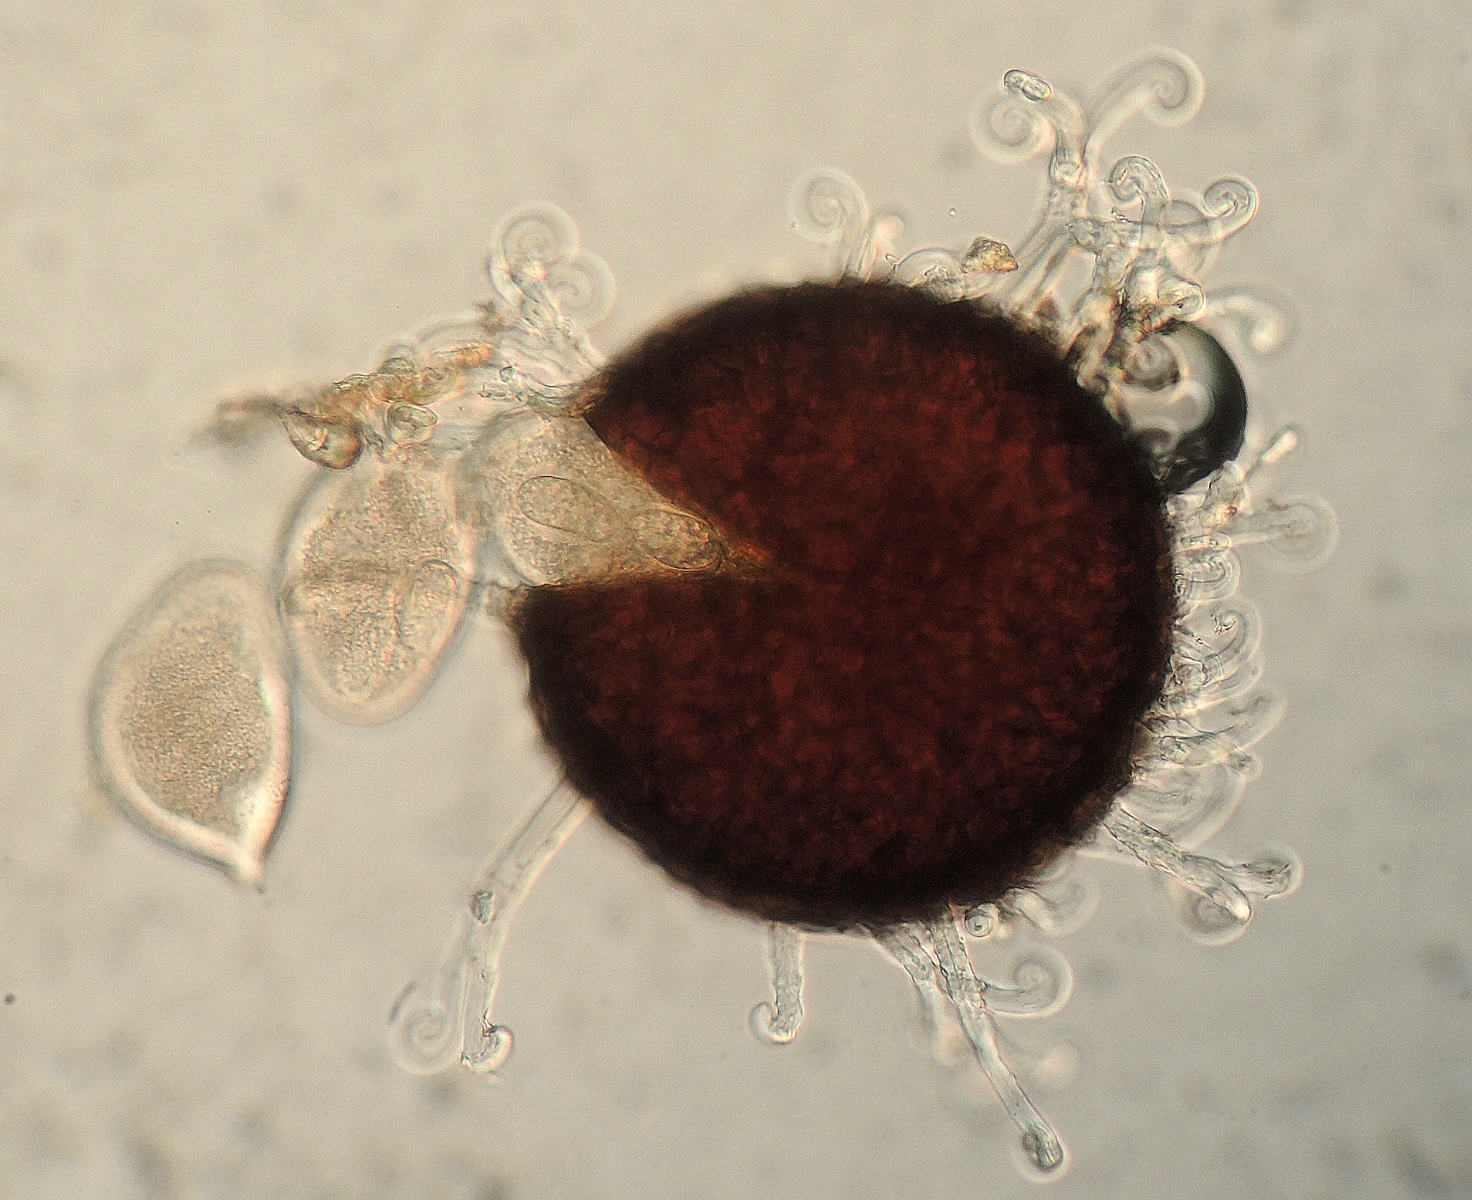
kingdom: Fungi
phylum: Ascomycota
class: Leotiomycetes
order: Helotiales
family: Erysiphaceae
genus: Sawadaea
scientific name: Sawadaea bicornis
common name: Maple mildew
